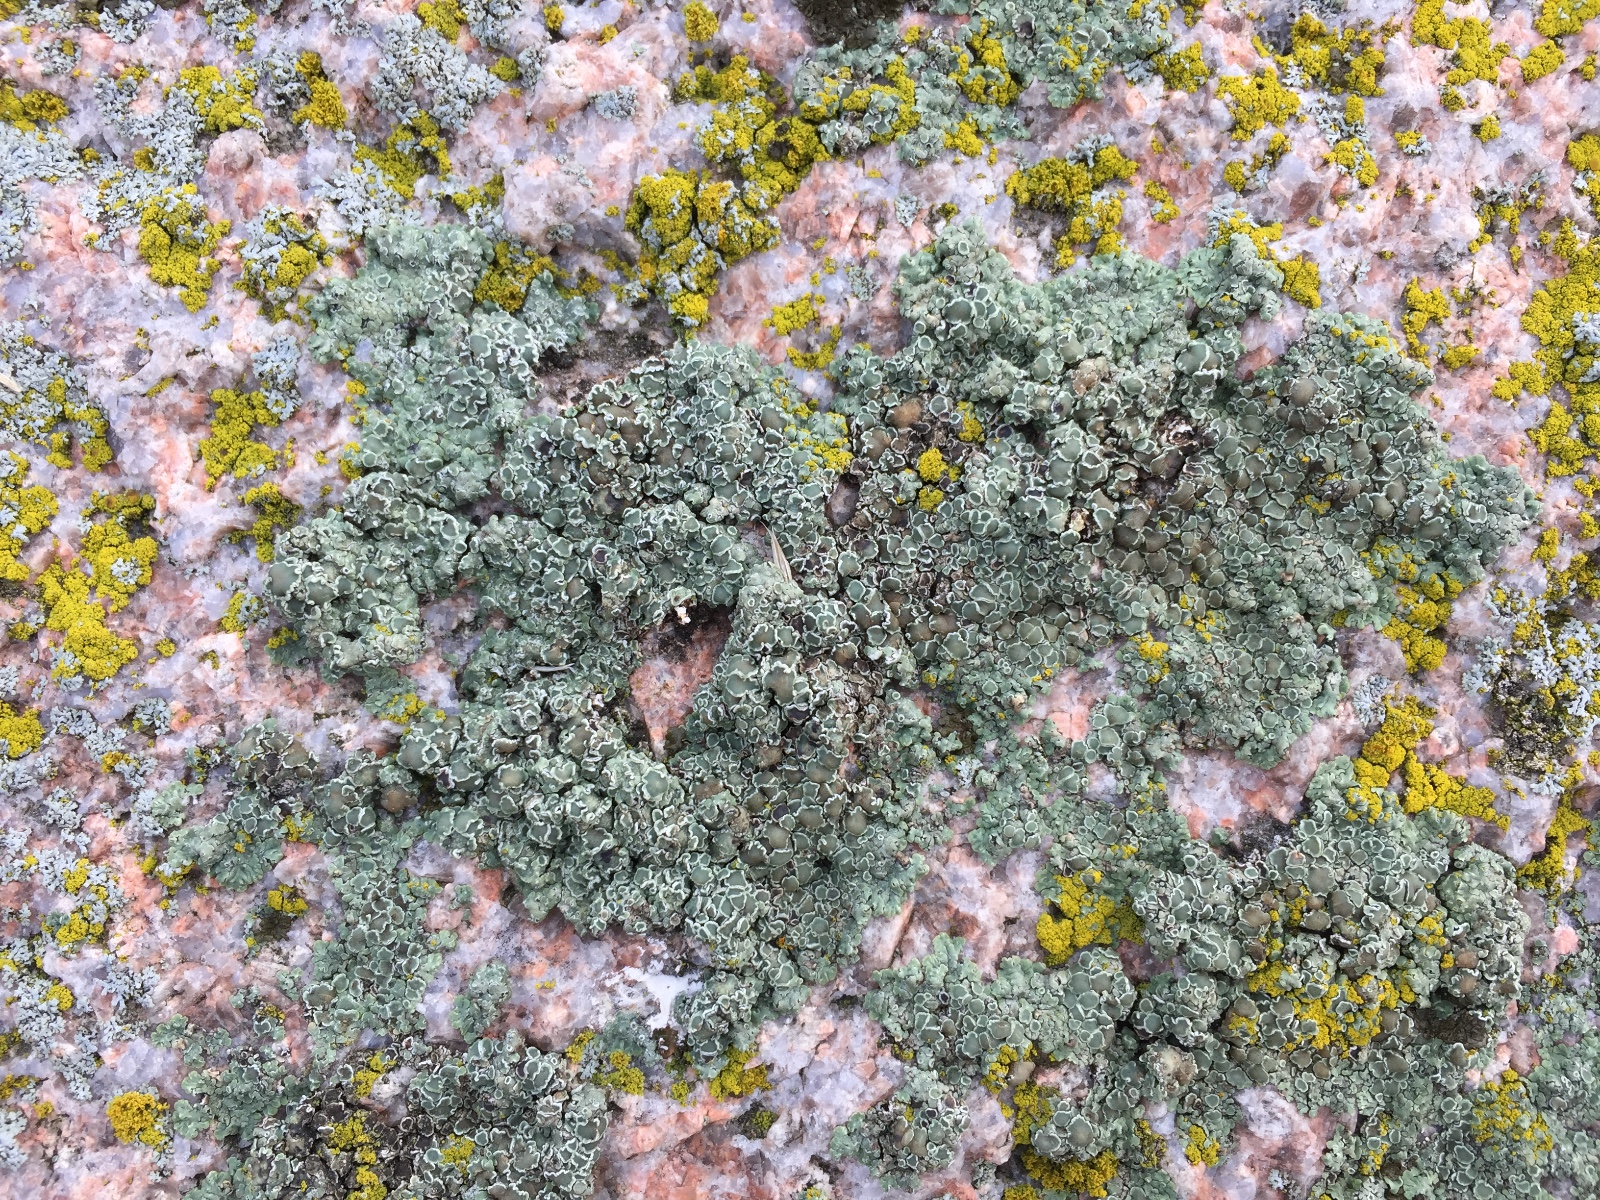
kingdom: Fungi
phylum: Ascomycota
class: Lecanoromycetes
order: Lecanorales
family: Lecanoraceae
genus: Protoparmeliopsis
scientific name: Protoparmeliopsis muralis
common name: randfliget kantskivelav
